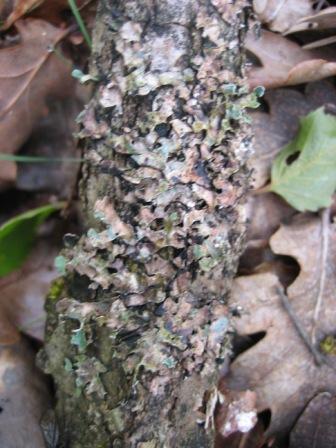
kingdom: Fungi
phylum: Ascomycota
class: Lecanoromycetes
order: Lecanorales
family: Parmeliaceae
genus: Parmelia
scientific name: Parmelia sulcata
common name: rynket skållav
